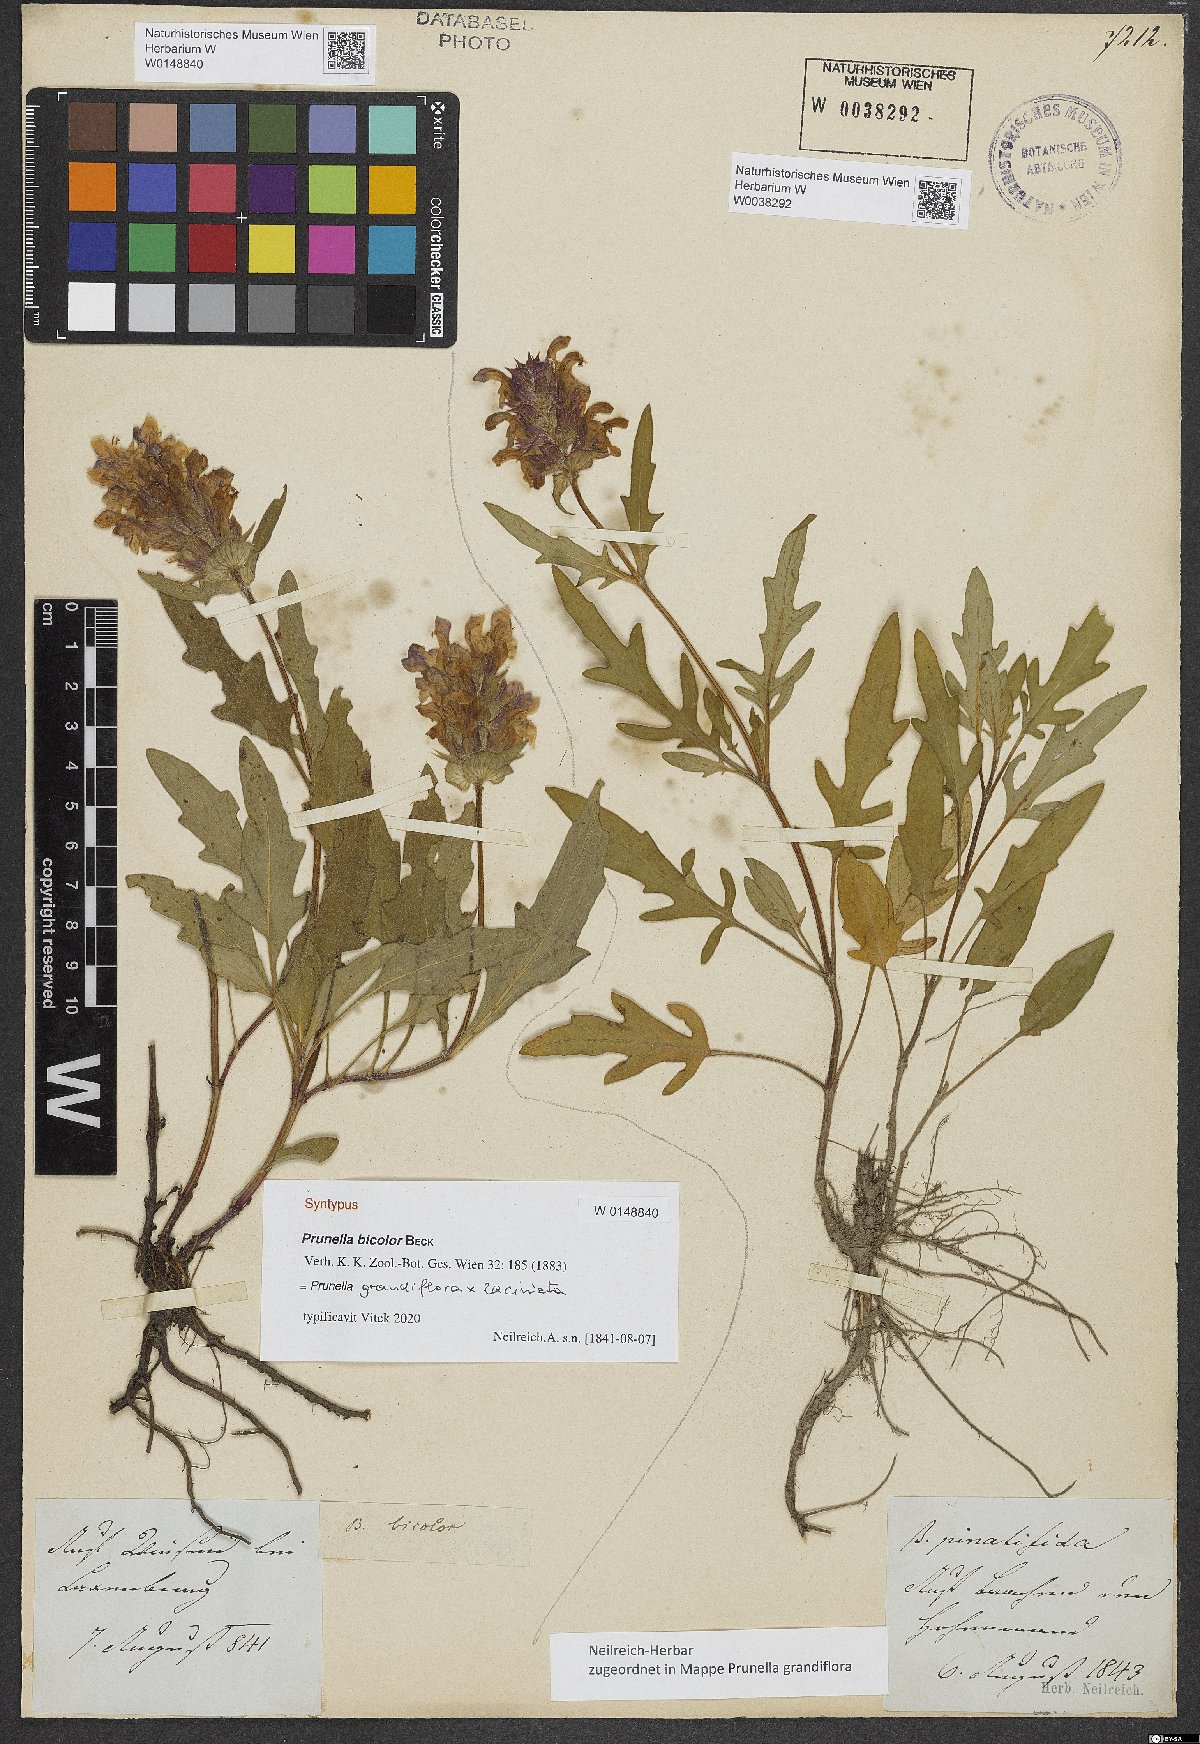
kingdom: Plantae
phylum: Tracheophyta
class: Magnoliopsida
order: Lamiales
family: Lamiaceae
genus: Prunella
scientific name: Prunella bicolor
